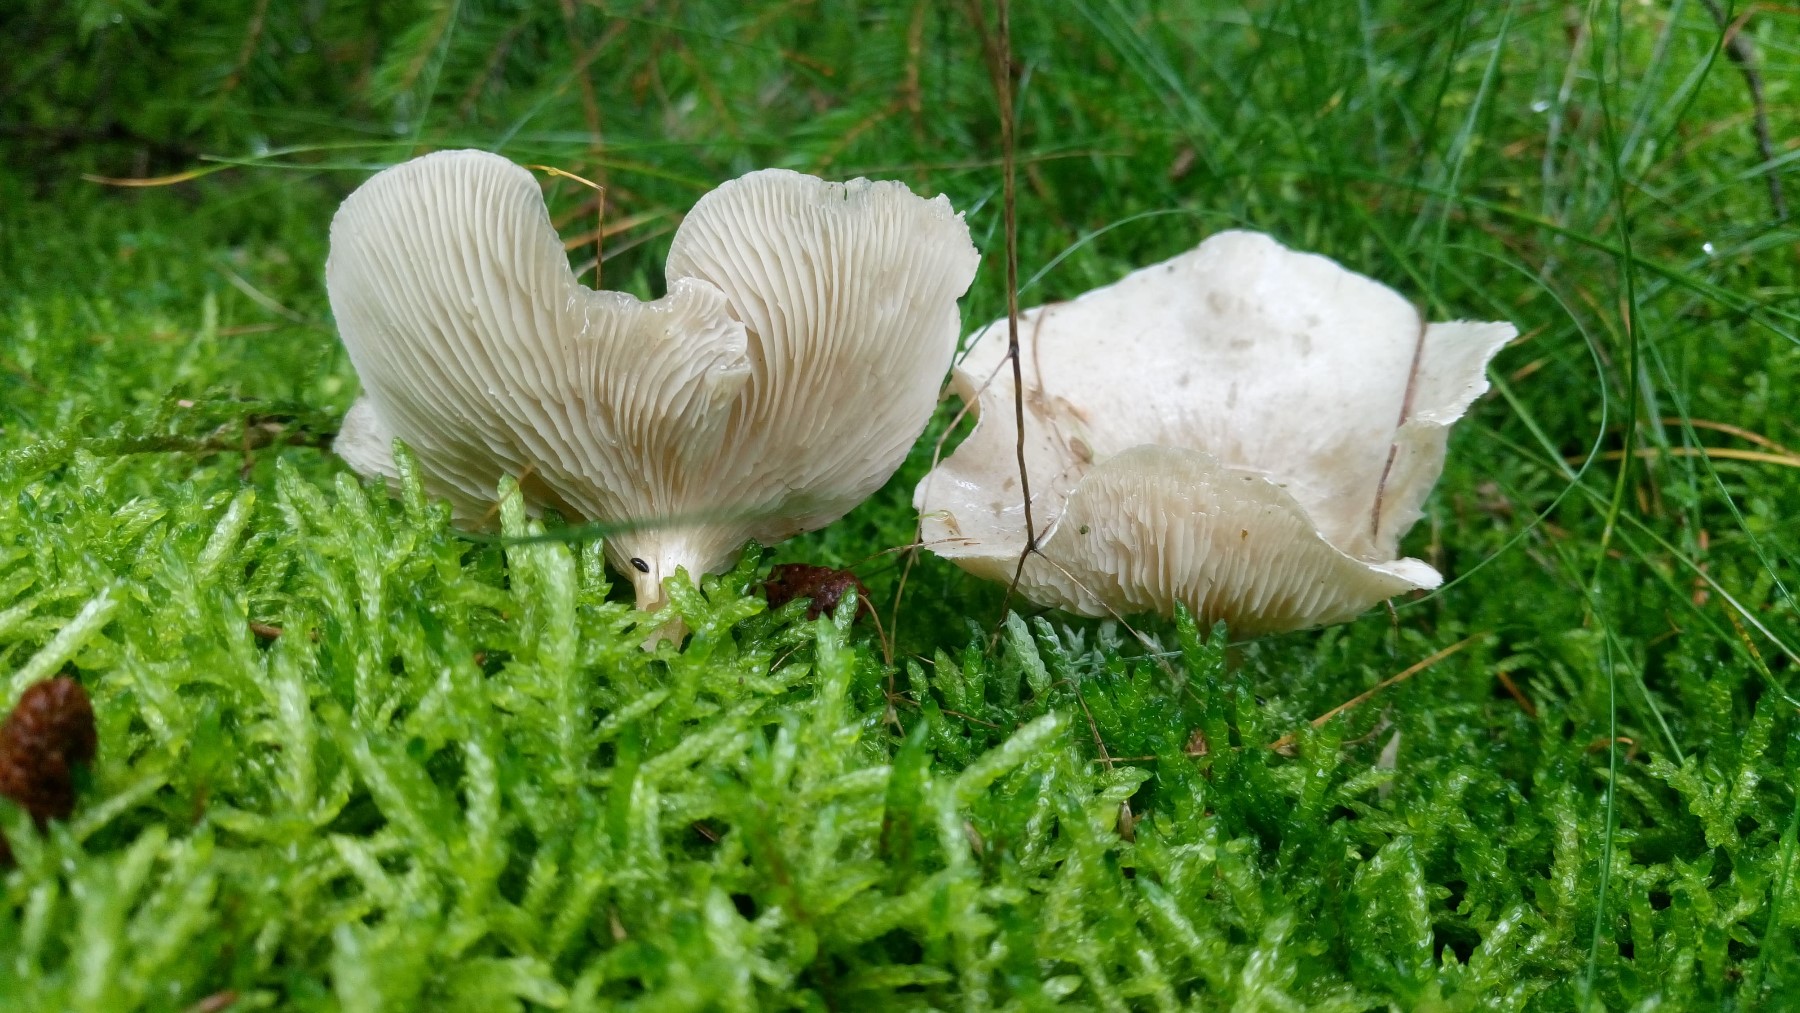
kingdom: Fungi
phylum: Basidiomycota
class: Agaricomycetes
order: Agaricales
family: Tricholomataceae
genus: Clitocybe
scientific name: Clitocybe odora
